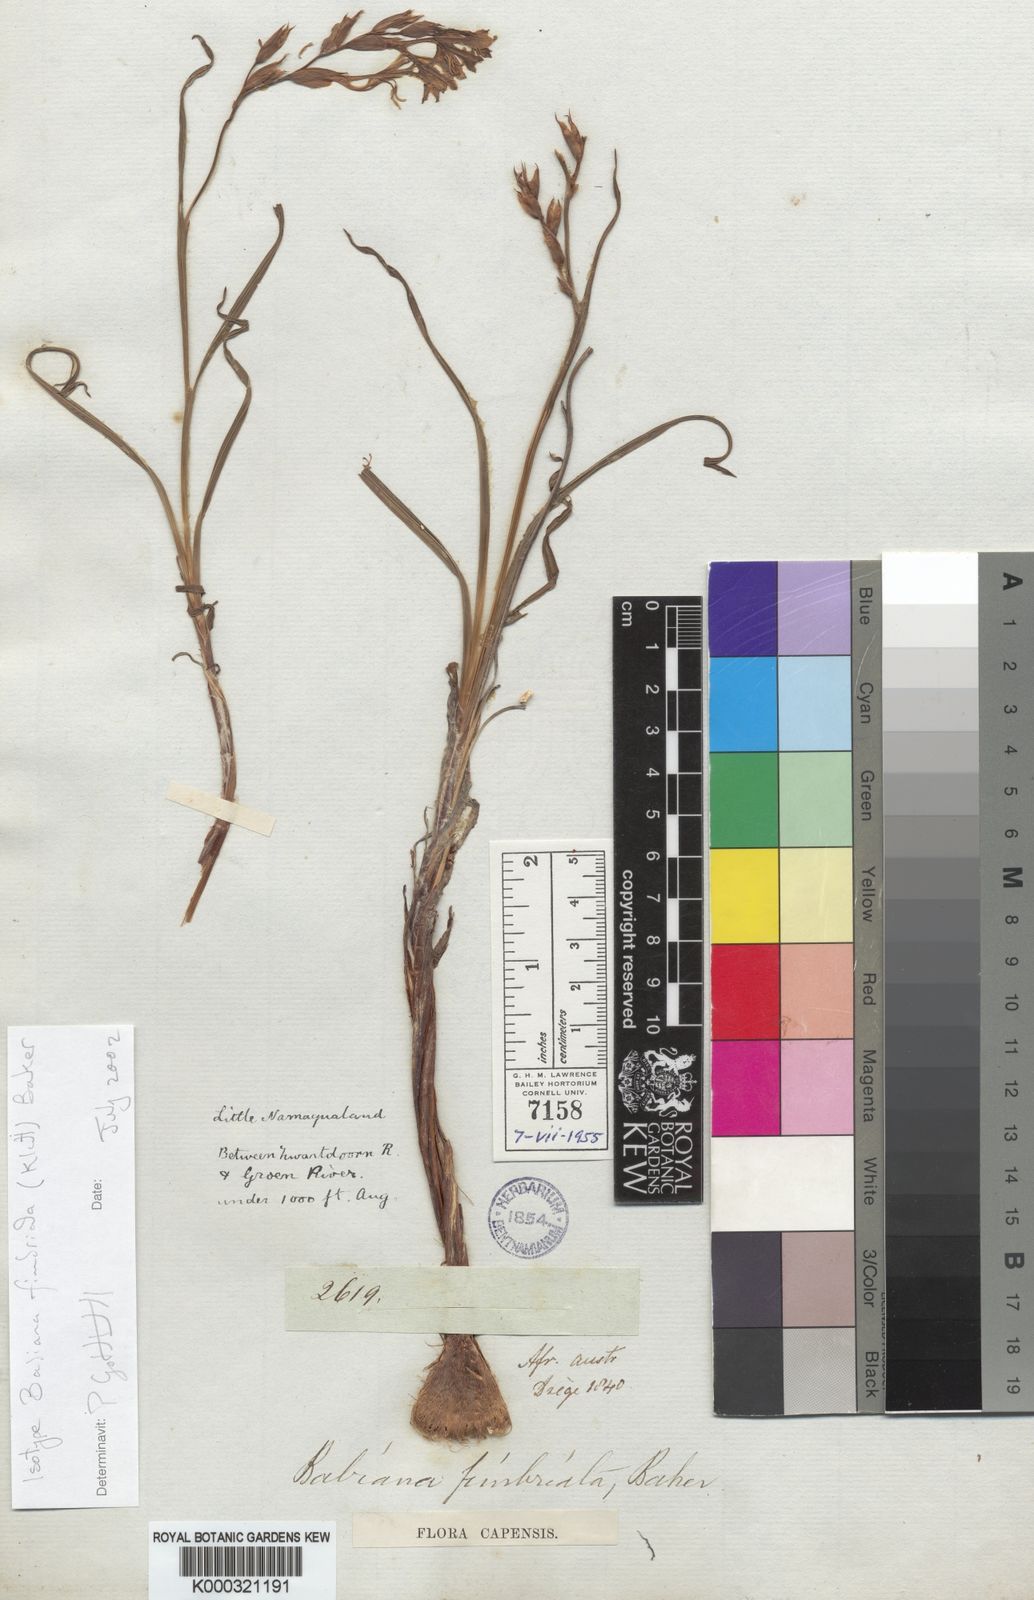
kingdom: Plantae
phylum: Tracheophyta
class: Liliopsida
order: Asparagales
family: Iridaceae
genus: Babiana
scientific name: Babiana fimbriata
